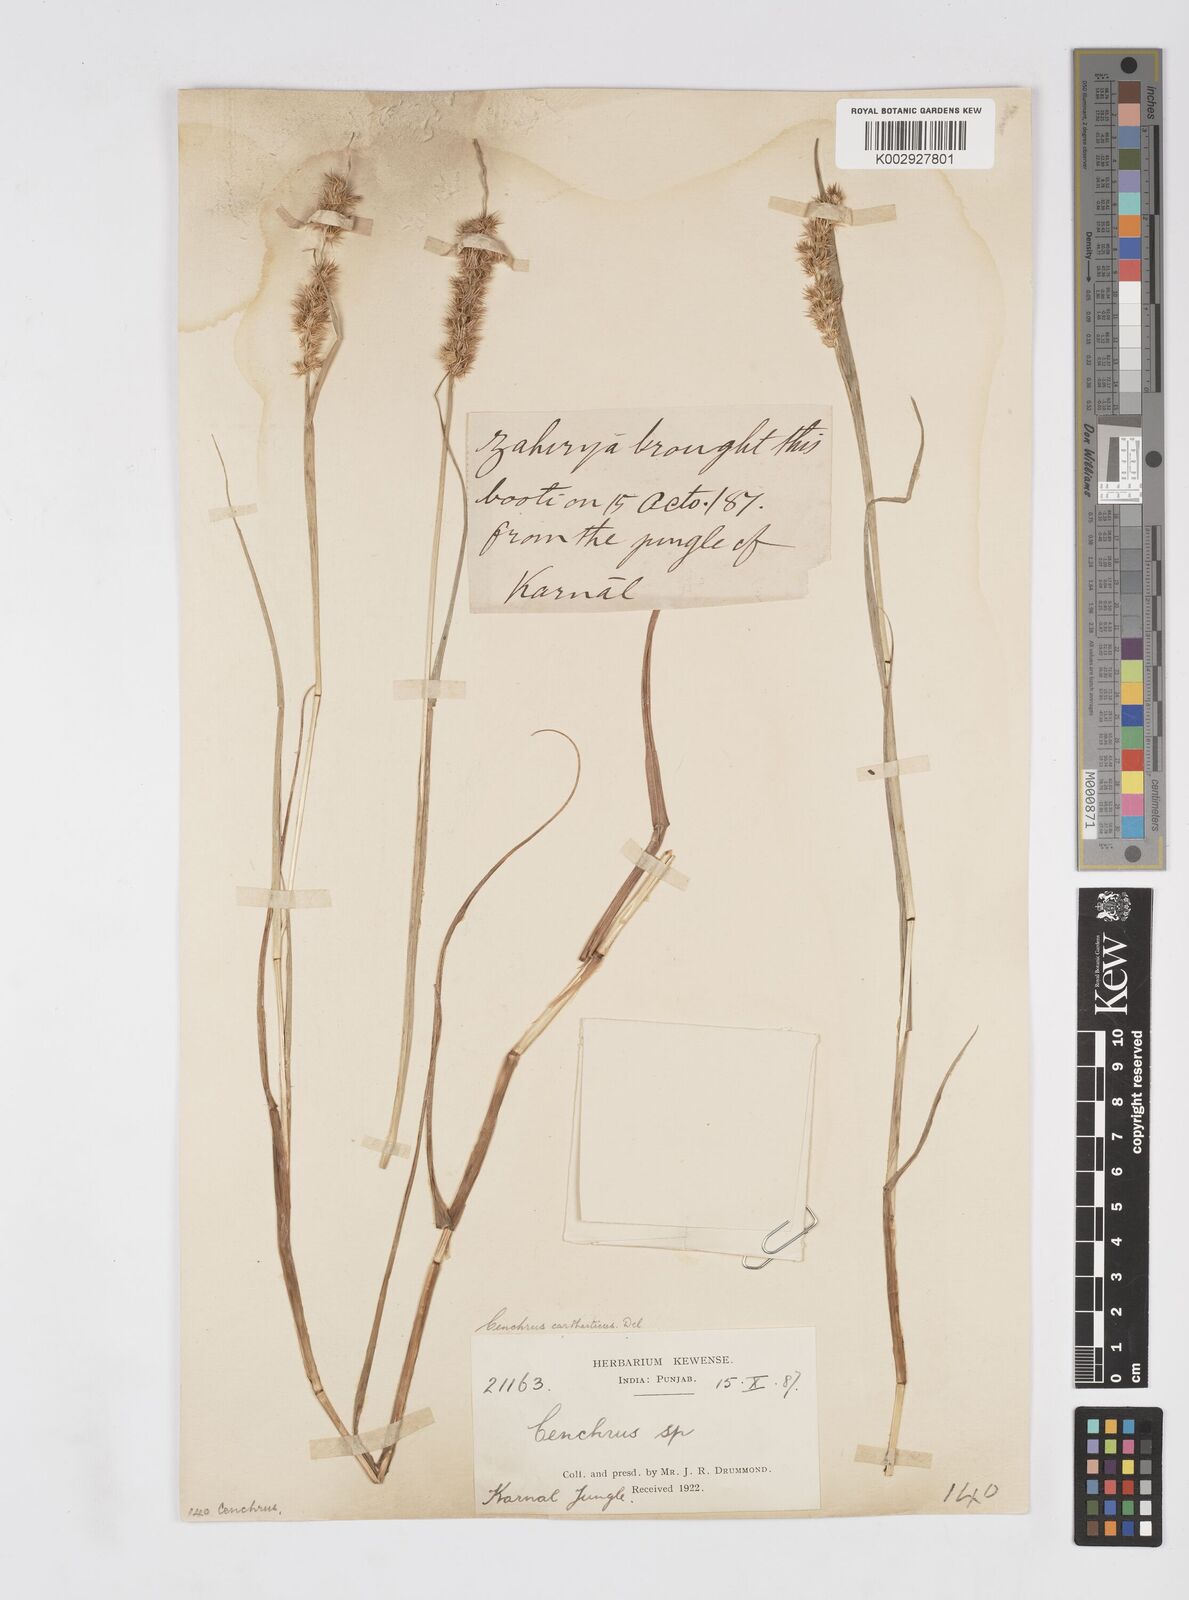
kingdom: Plantae
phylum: Tracheophyta
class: Liliopsida
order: Poales
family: Poaceae
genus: Cenchrus
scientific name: Cenchrus biflorus
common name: Indian sandbur
